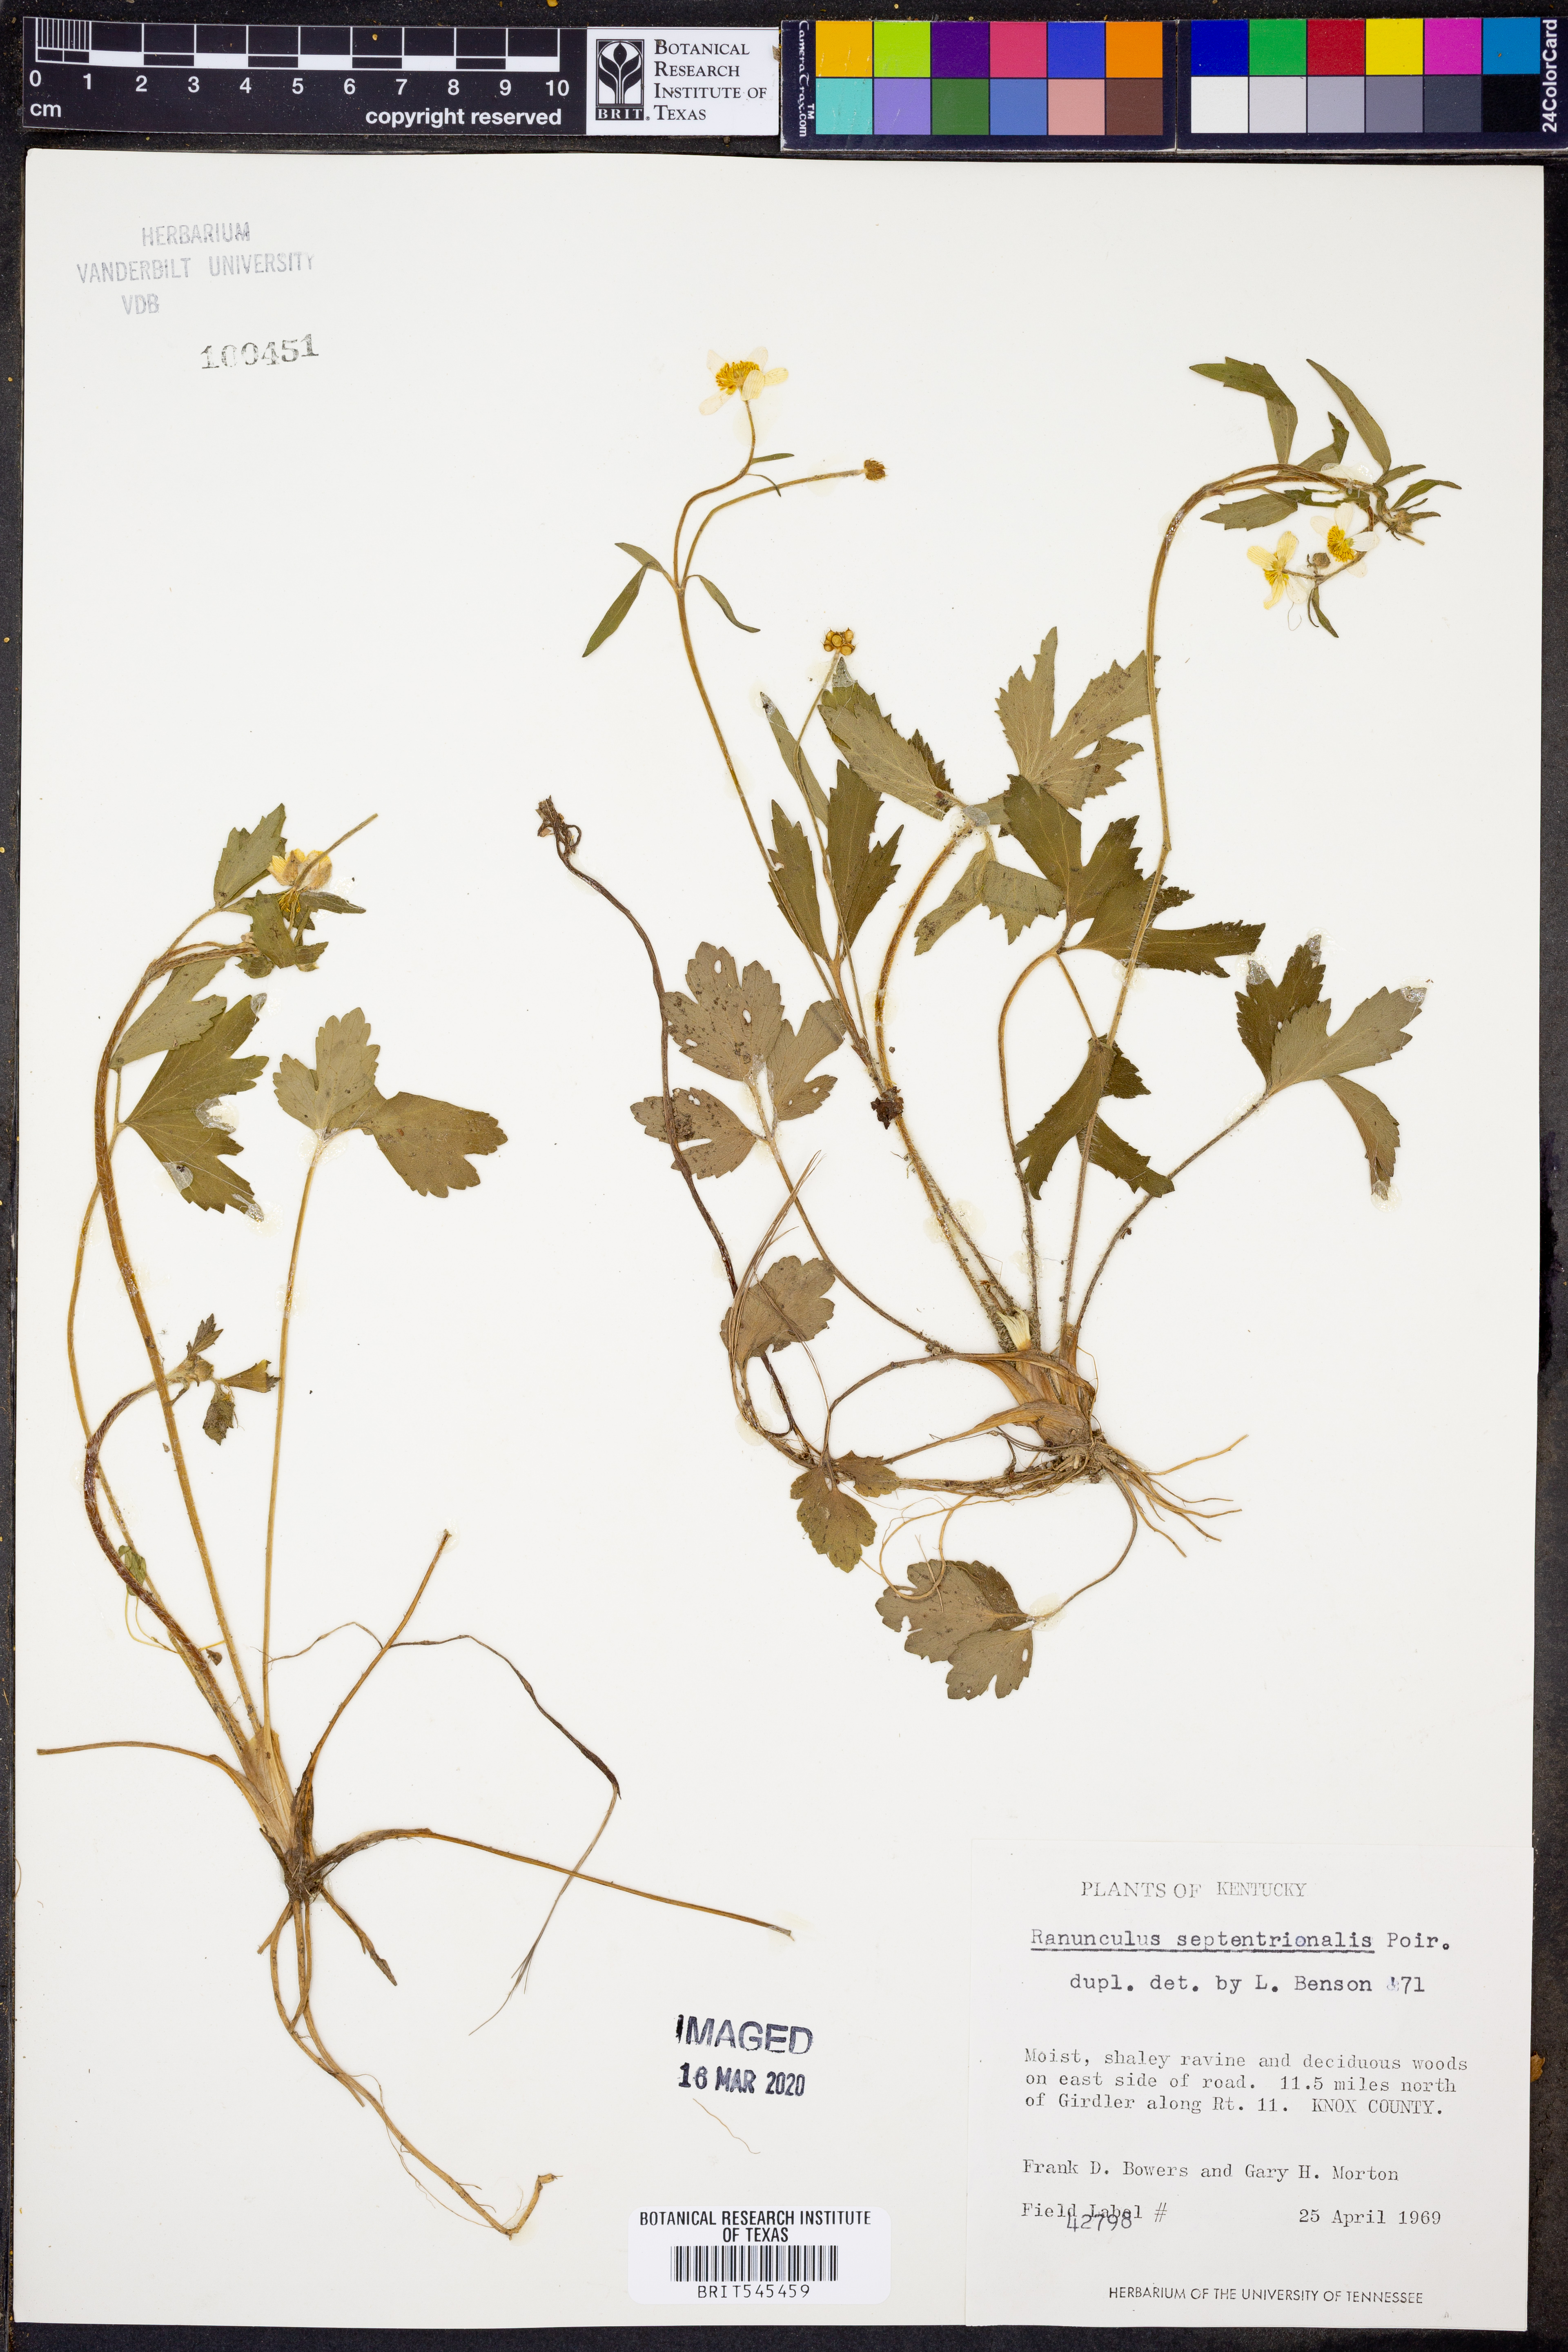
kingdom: Plantae
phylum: Tracheophyta
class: Magnoliopsida
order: Ranunculales
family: Ranunculaceae
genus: Ranunculus
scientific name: Ranunculus hispidus
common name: Bristly buttercup
